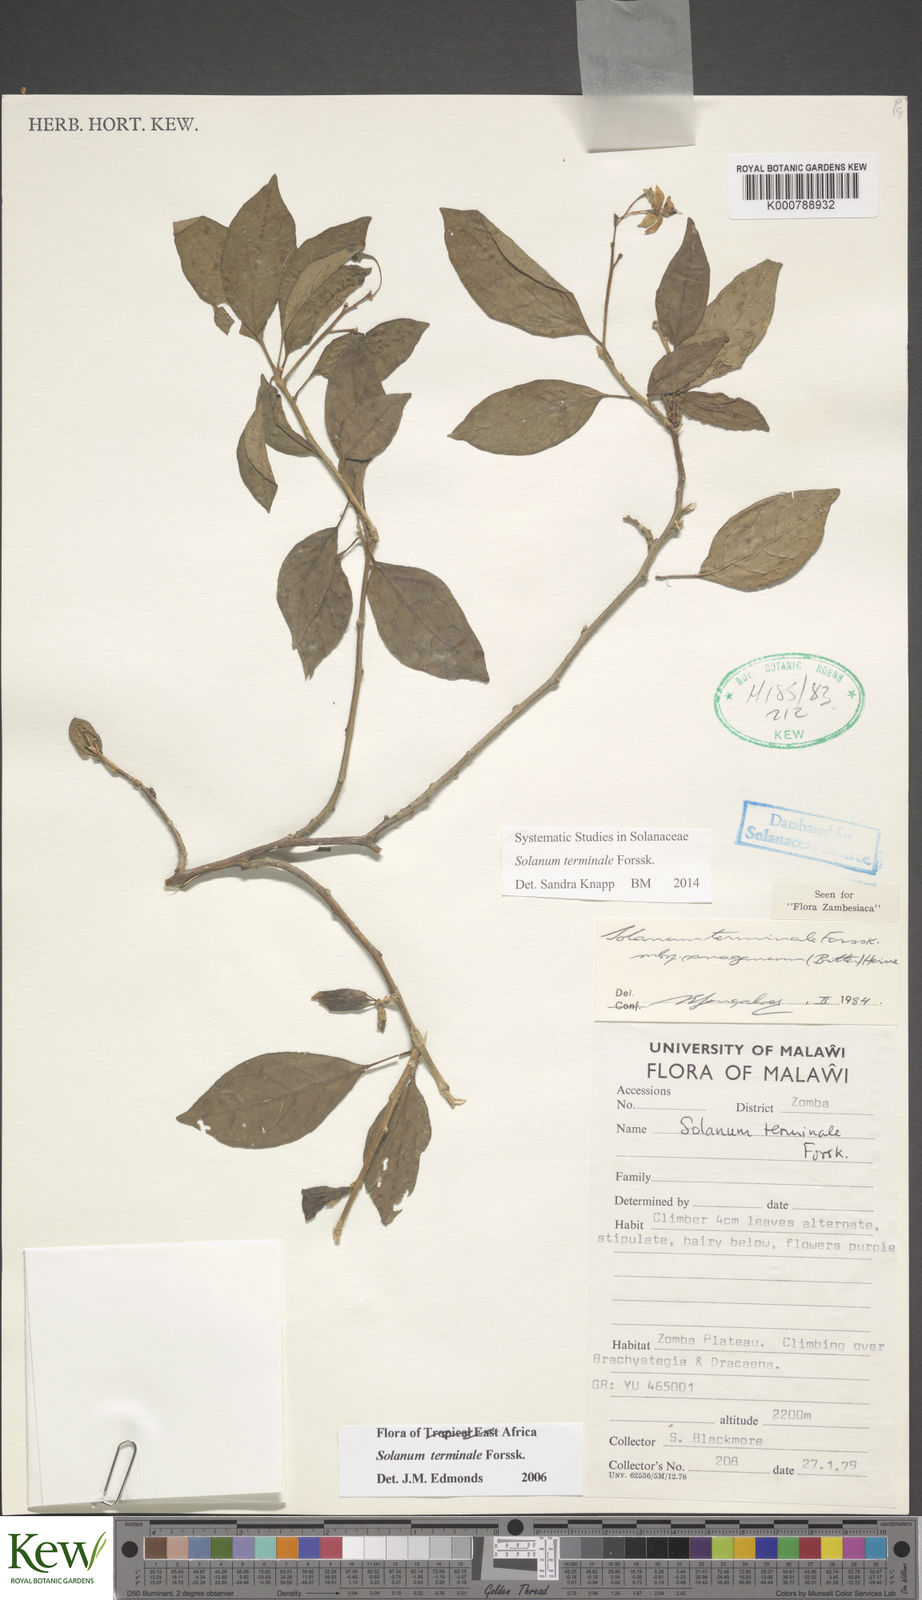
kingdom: Plantae
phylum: Tracheophyta
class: Magnoliopsida
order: Solanales
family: Solanaceae
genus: Solanum
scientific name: Solanum terminale
